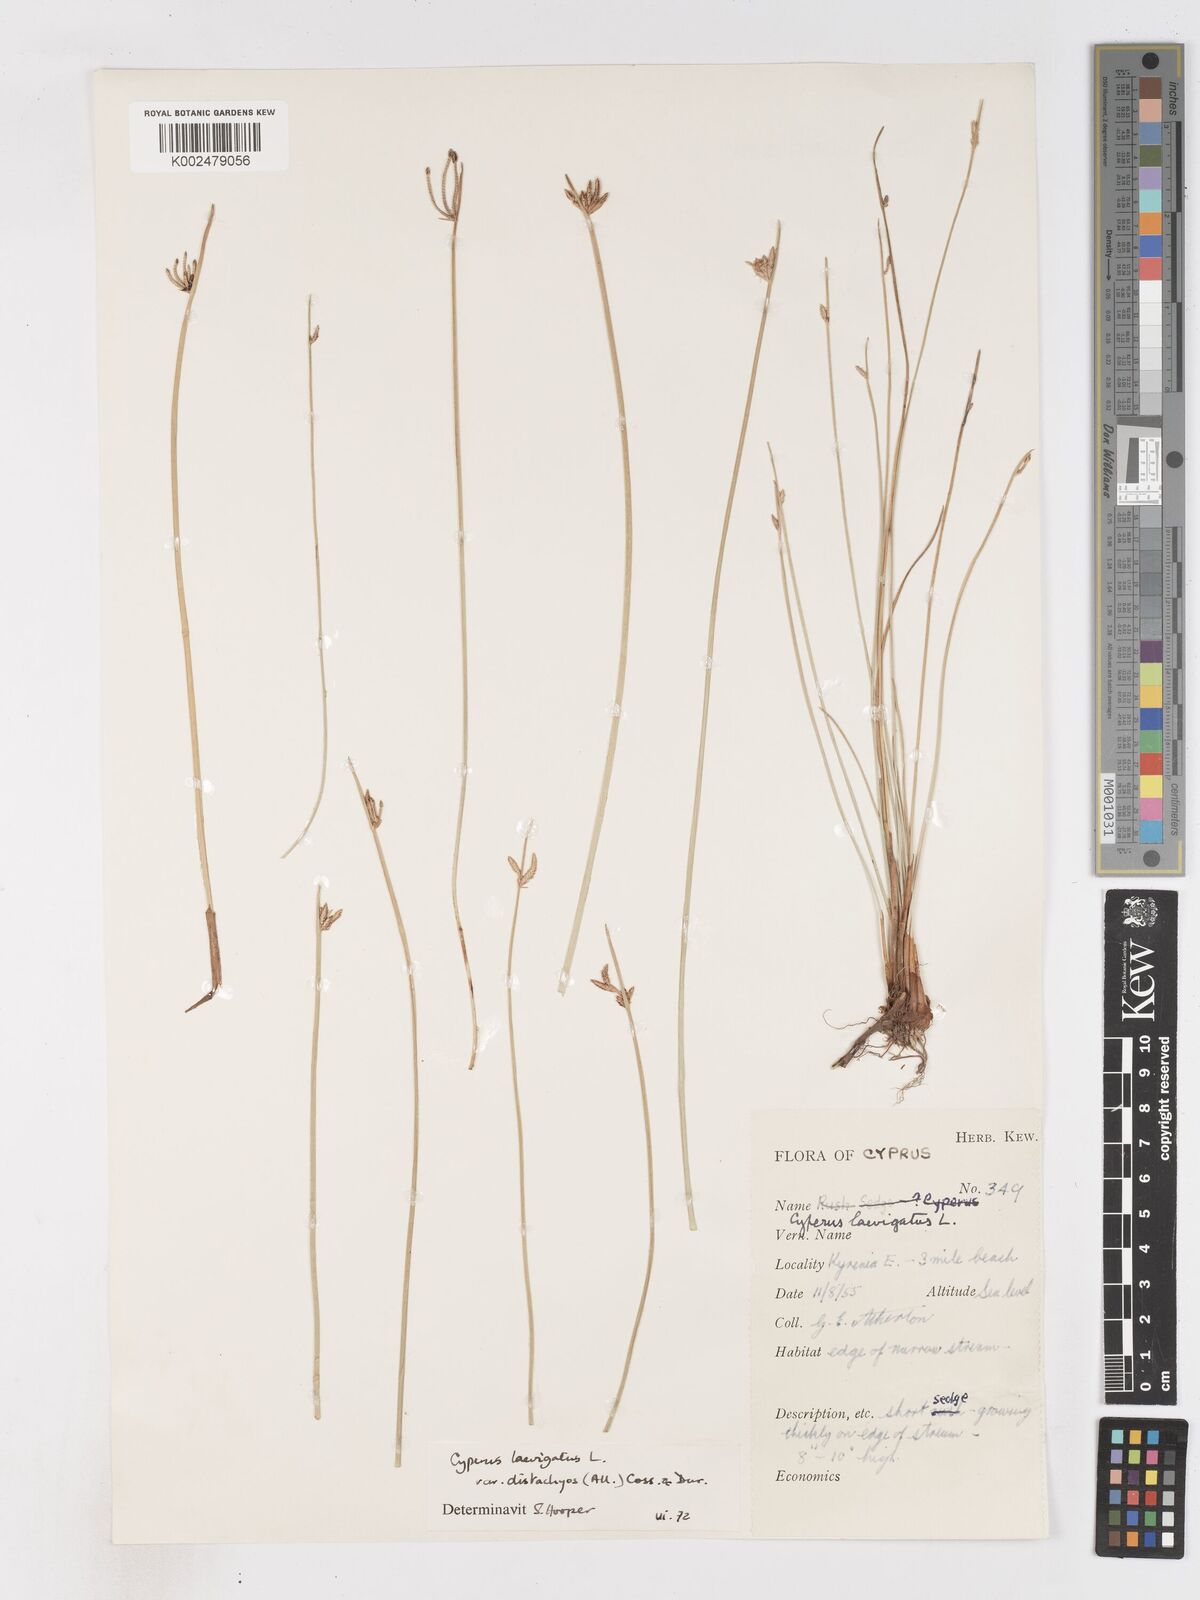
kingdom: Plantae
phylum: Tracheophyta
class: Liliopsida
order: Poales
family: Cyperaceae
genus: Cyperus
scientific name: Cyperus laevigatus
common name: Smooth flat sedge
